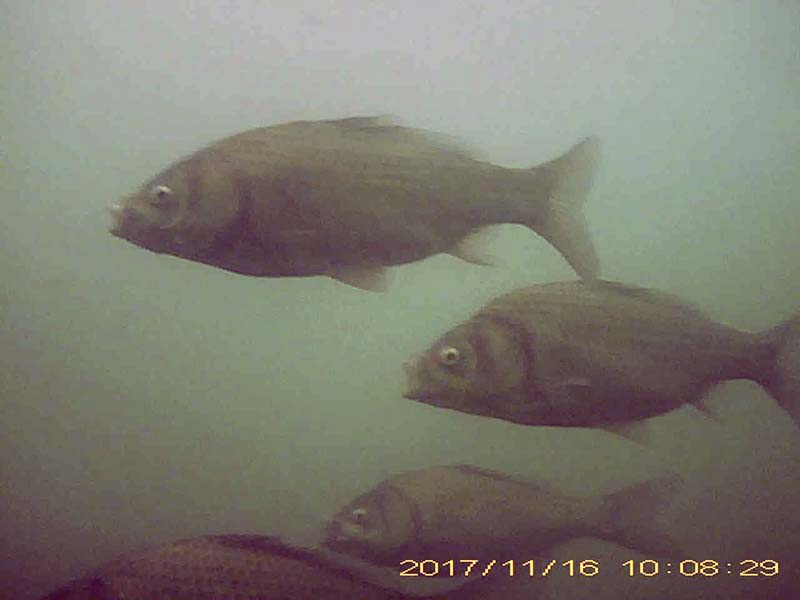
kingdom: Animalia
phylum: Chordata
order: Cypriniformes
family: Cyprinidae
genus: Carassius
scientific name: Carassius cuvieri
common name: ゲンゴロウブナ
